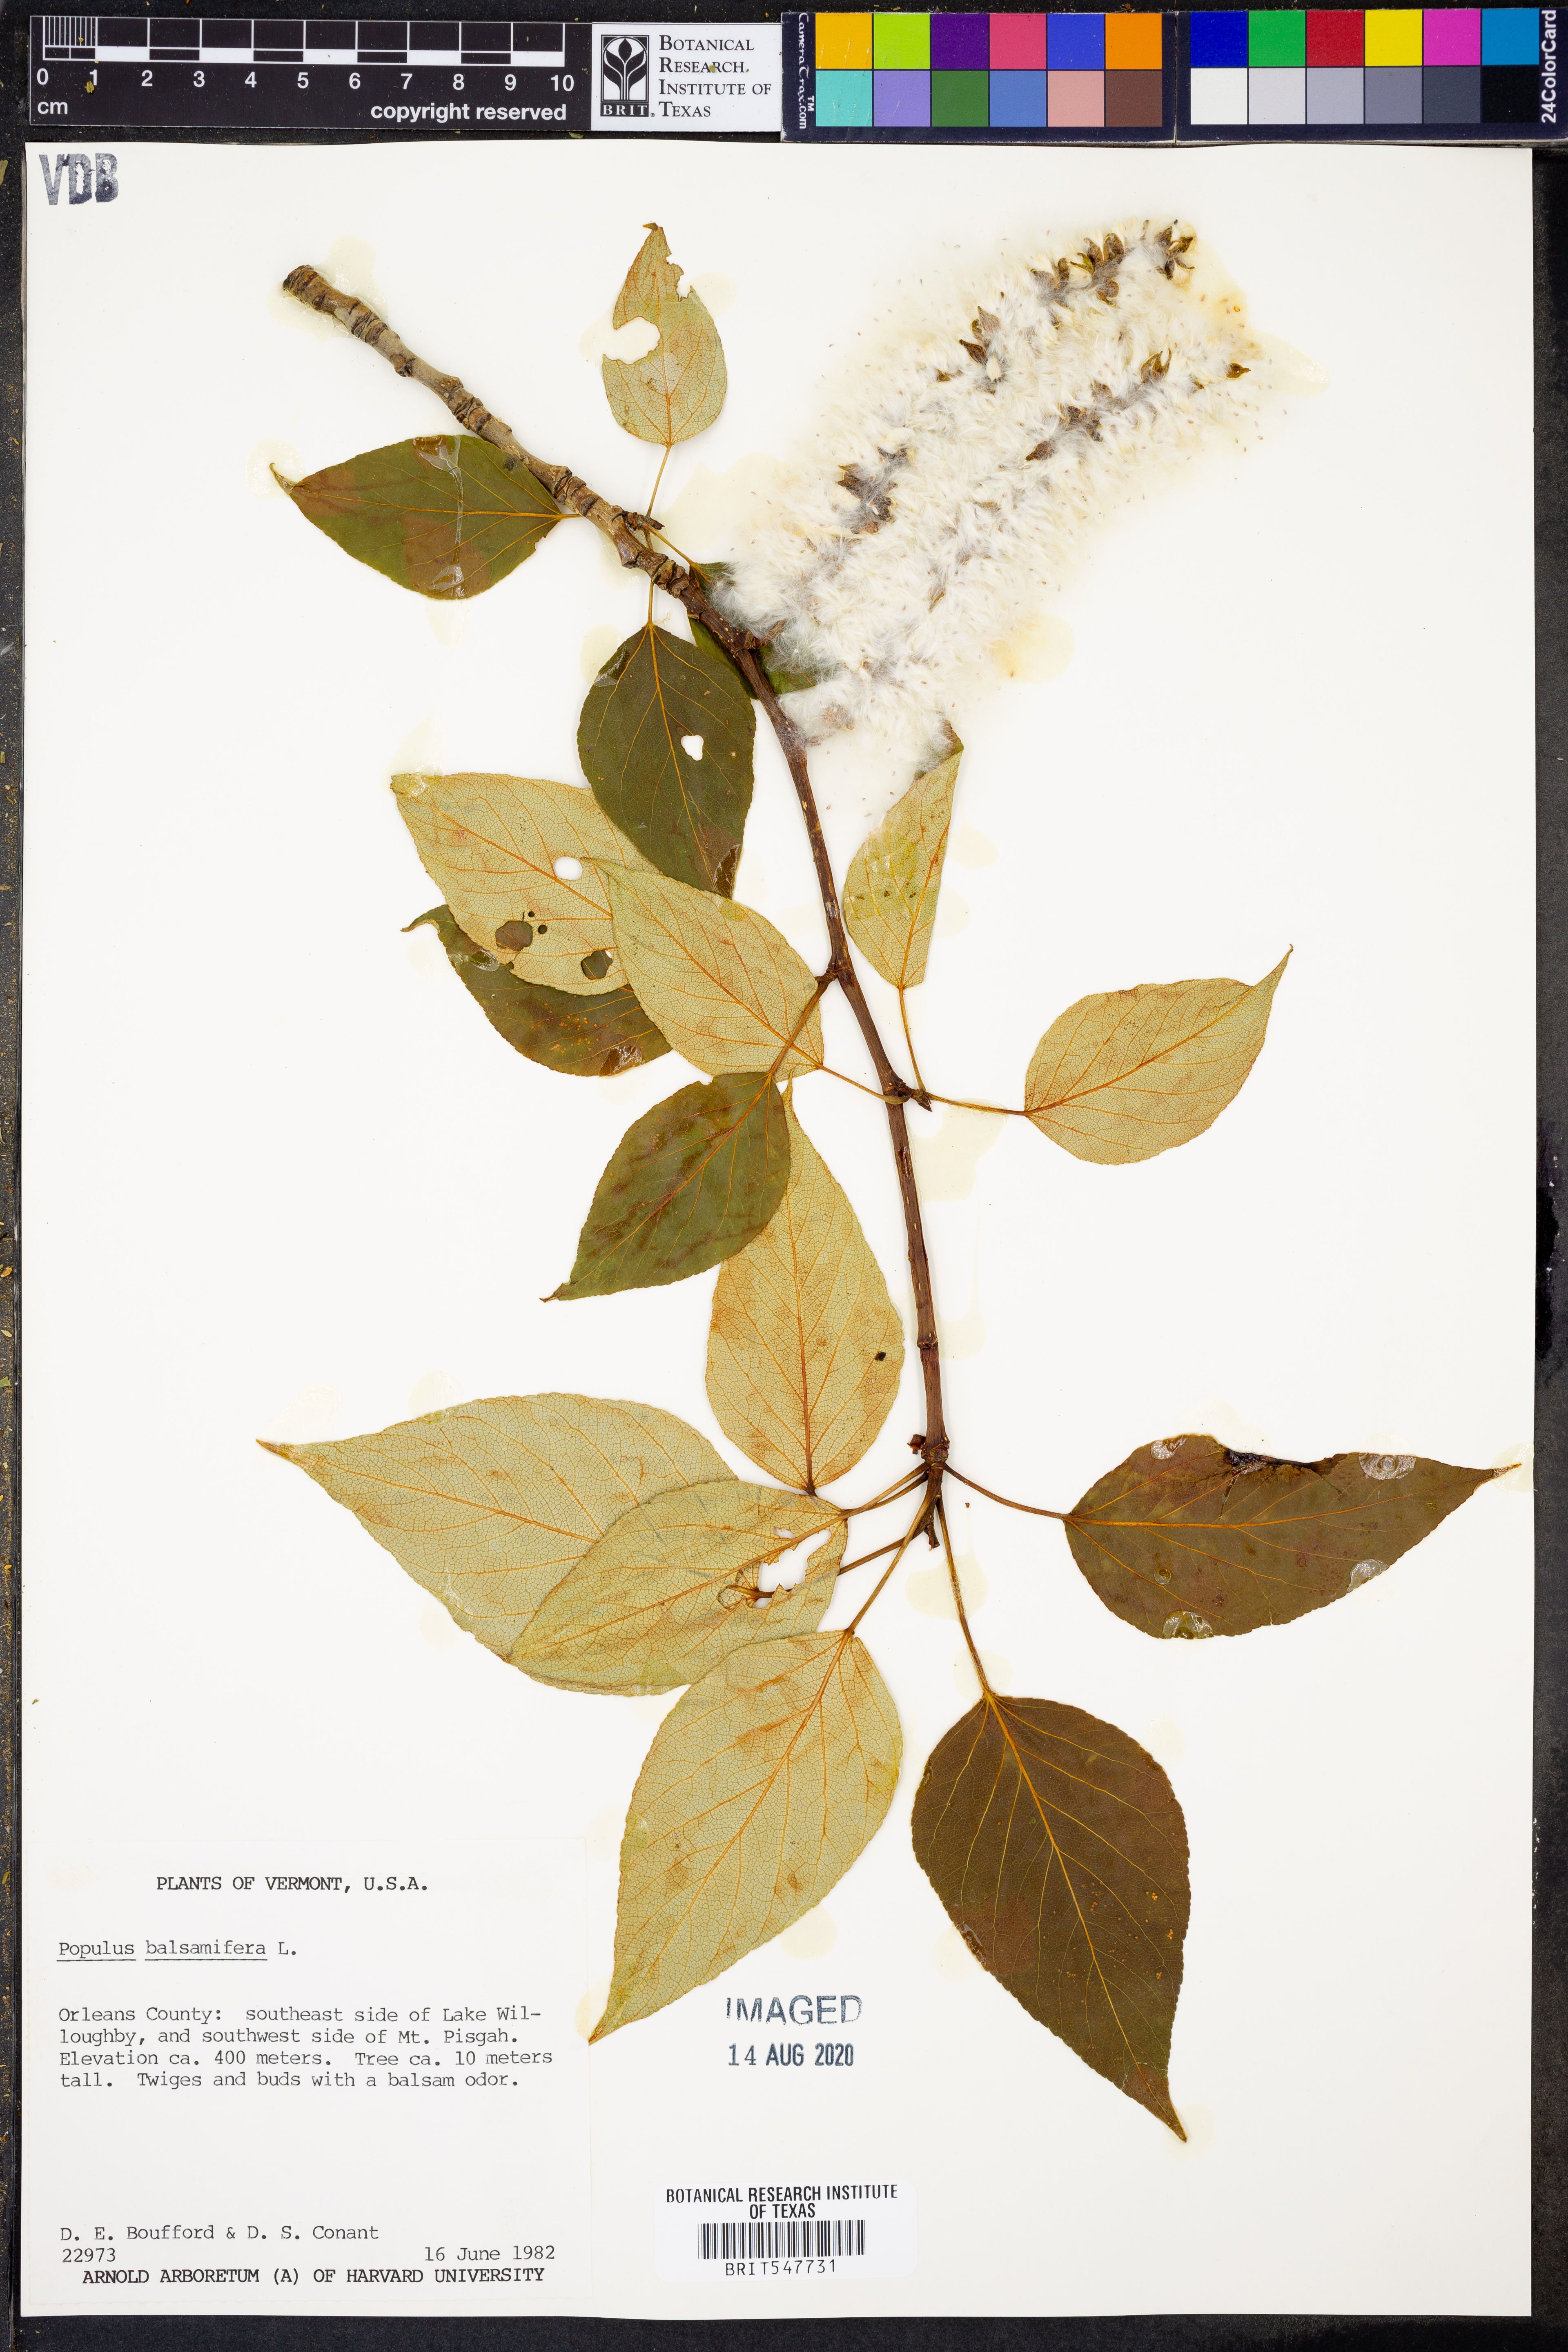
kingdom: Plantae
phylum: Tracheophyta
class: Magnoliopsida
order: Malpighiales
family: Salicaceae
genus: Populus
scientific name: Populus balsamifera
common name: Balsam poplar
